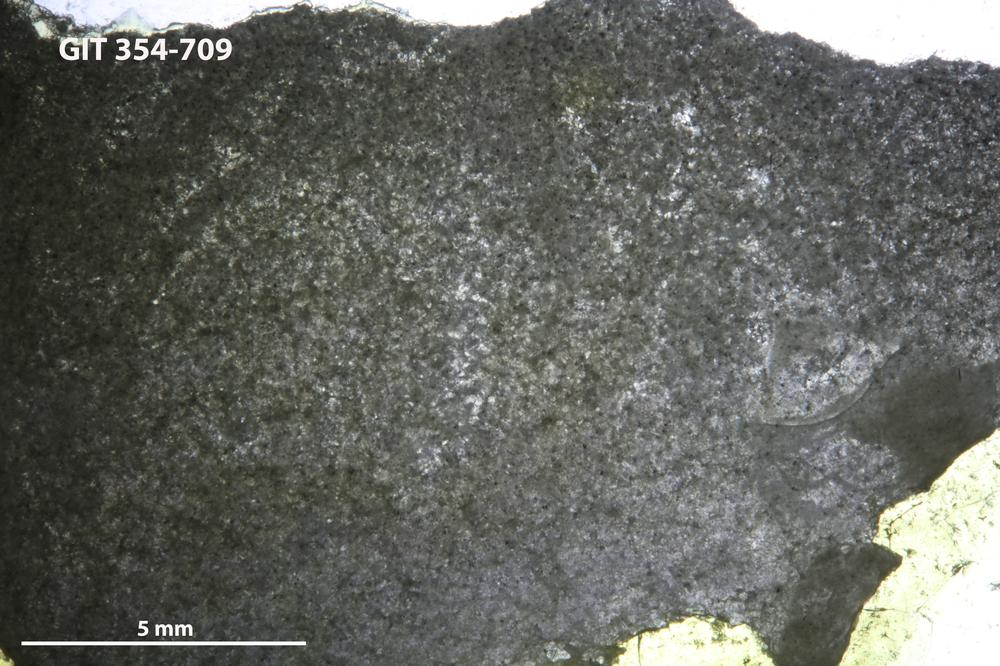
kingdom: Animalia
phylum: Porifera
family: Stylostromatidae
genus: Pachystylostroma
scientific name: Pachystylostroma
